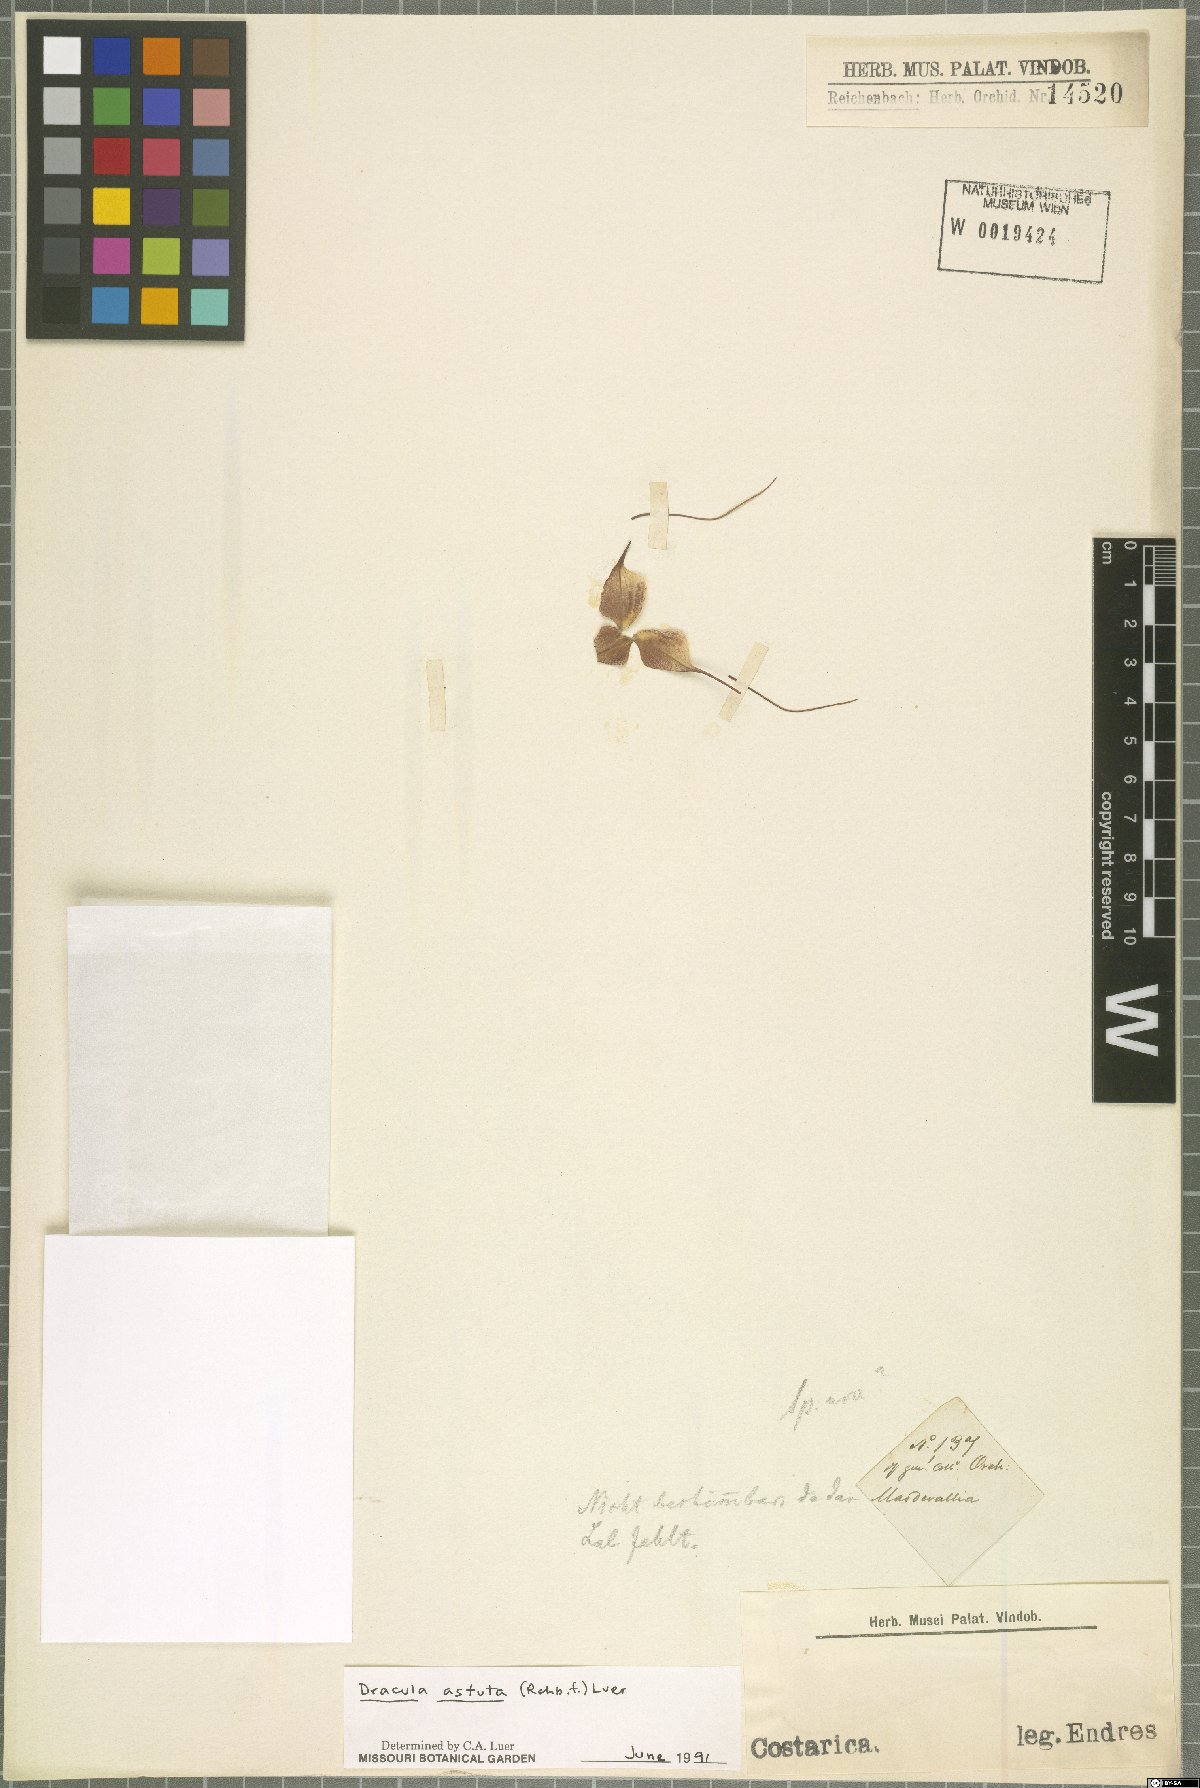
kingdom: Plantae
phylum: Tracheophyta
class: Liliopsida
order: Asparagales
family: Orchidaceae
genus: Dracula
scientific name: Dracula astuta
